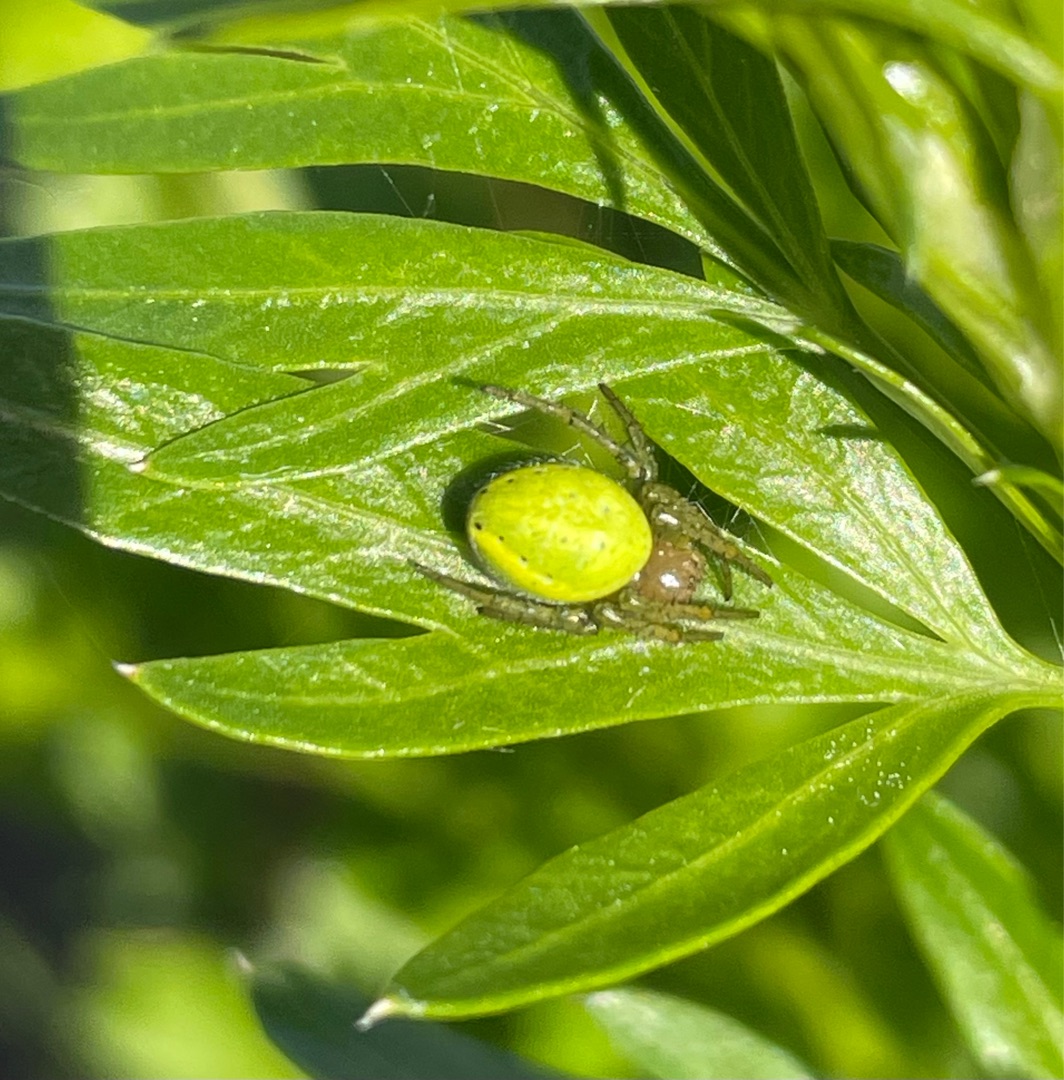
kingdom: Animalia
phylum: Arthropoda
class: Arachnida
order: Araneae
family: Araneidae
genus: Araniella
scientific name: Araniella
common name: Agurkeedderkopslægten
